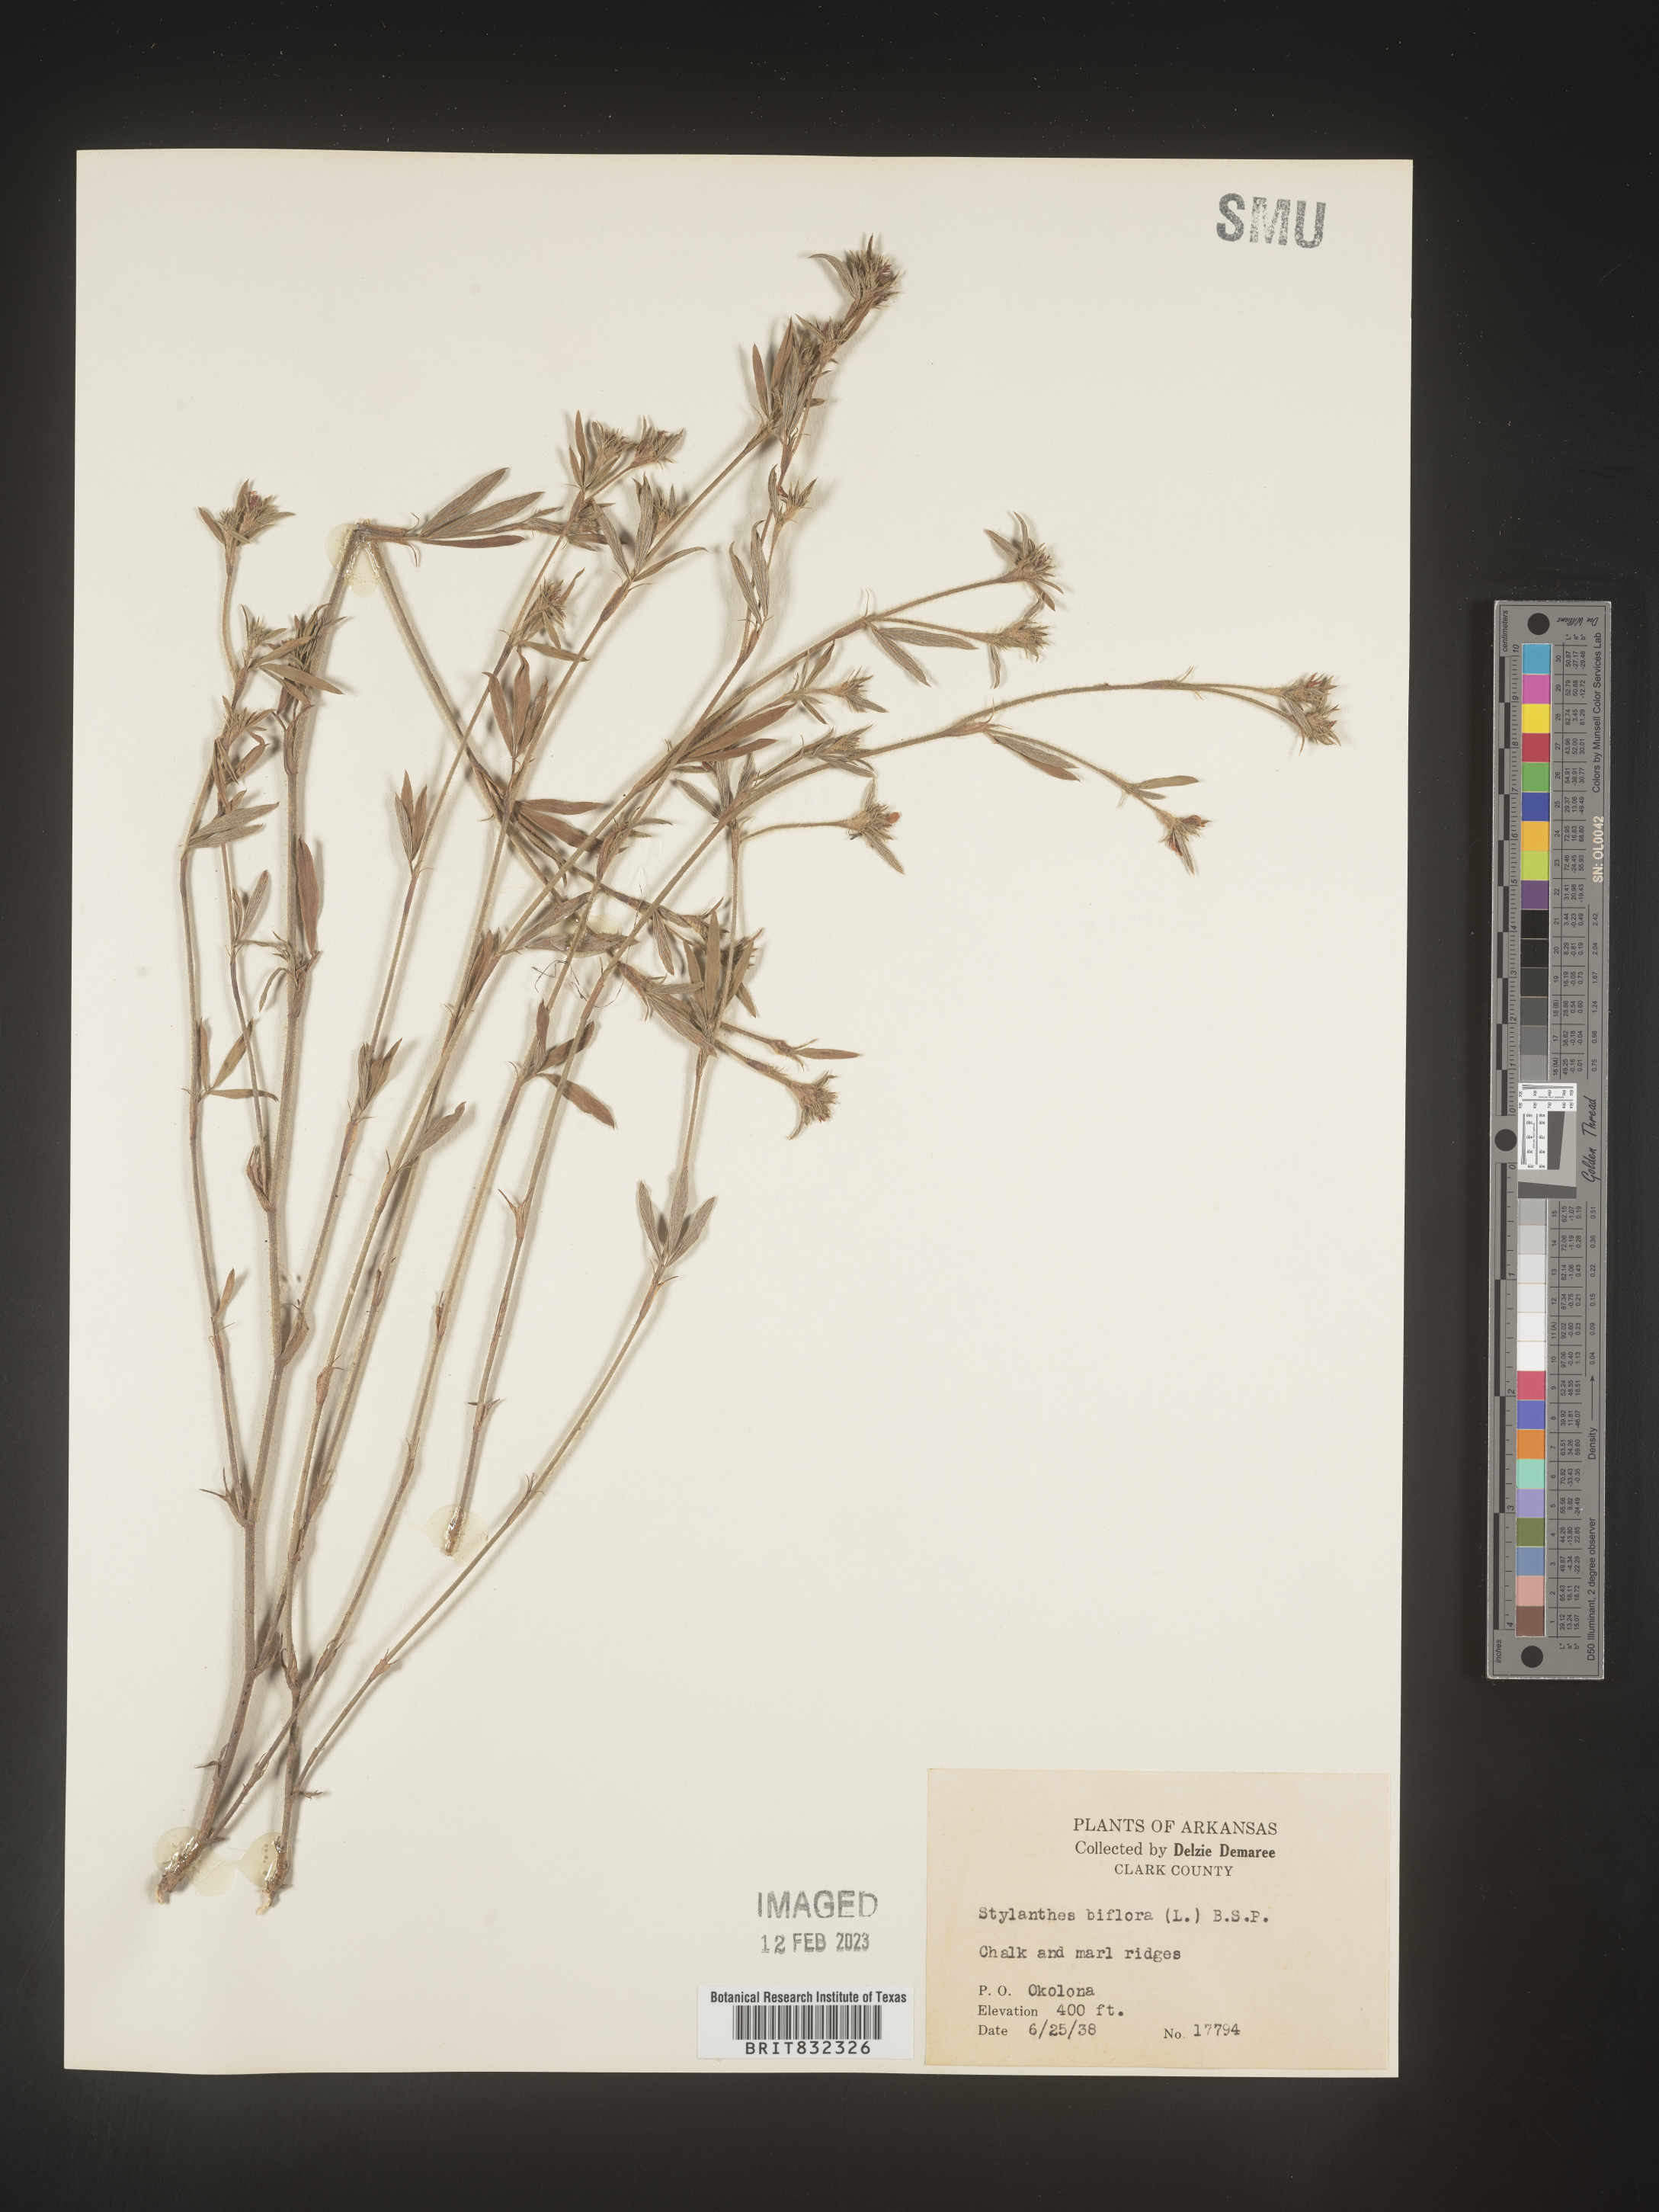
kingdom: Plantae
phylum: Tracheophyta
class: Magnoliopsida
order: Fabales
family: Fabaceae
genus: Stylosanthes
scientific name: Stylosanthes biflora
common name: Two-flower pencil-flower
